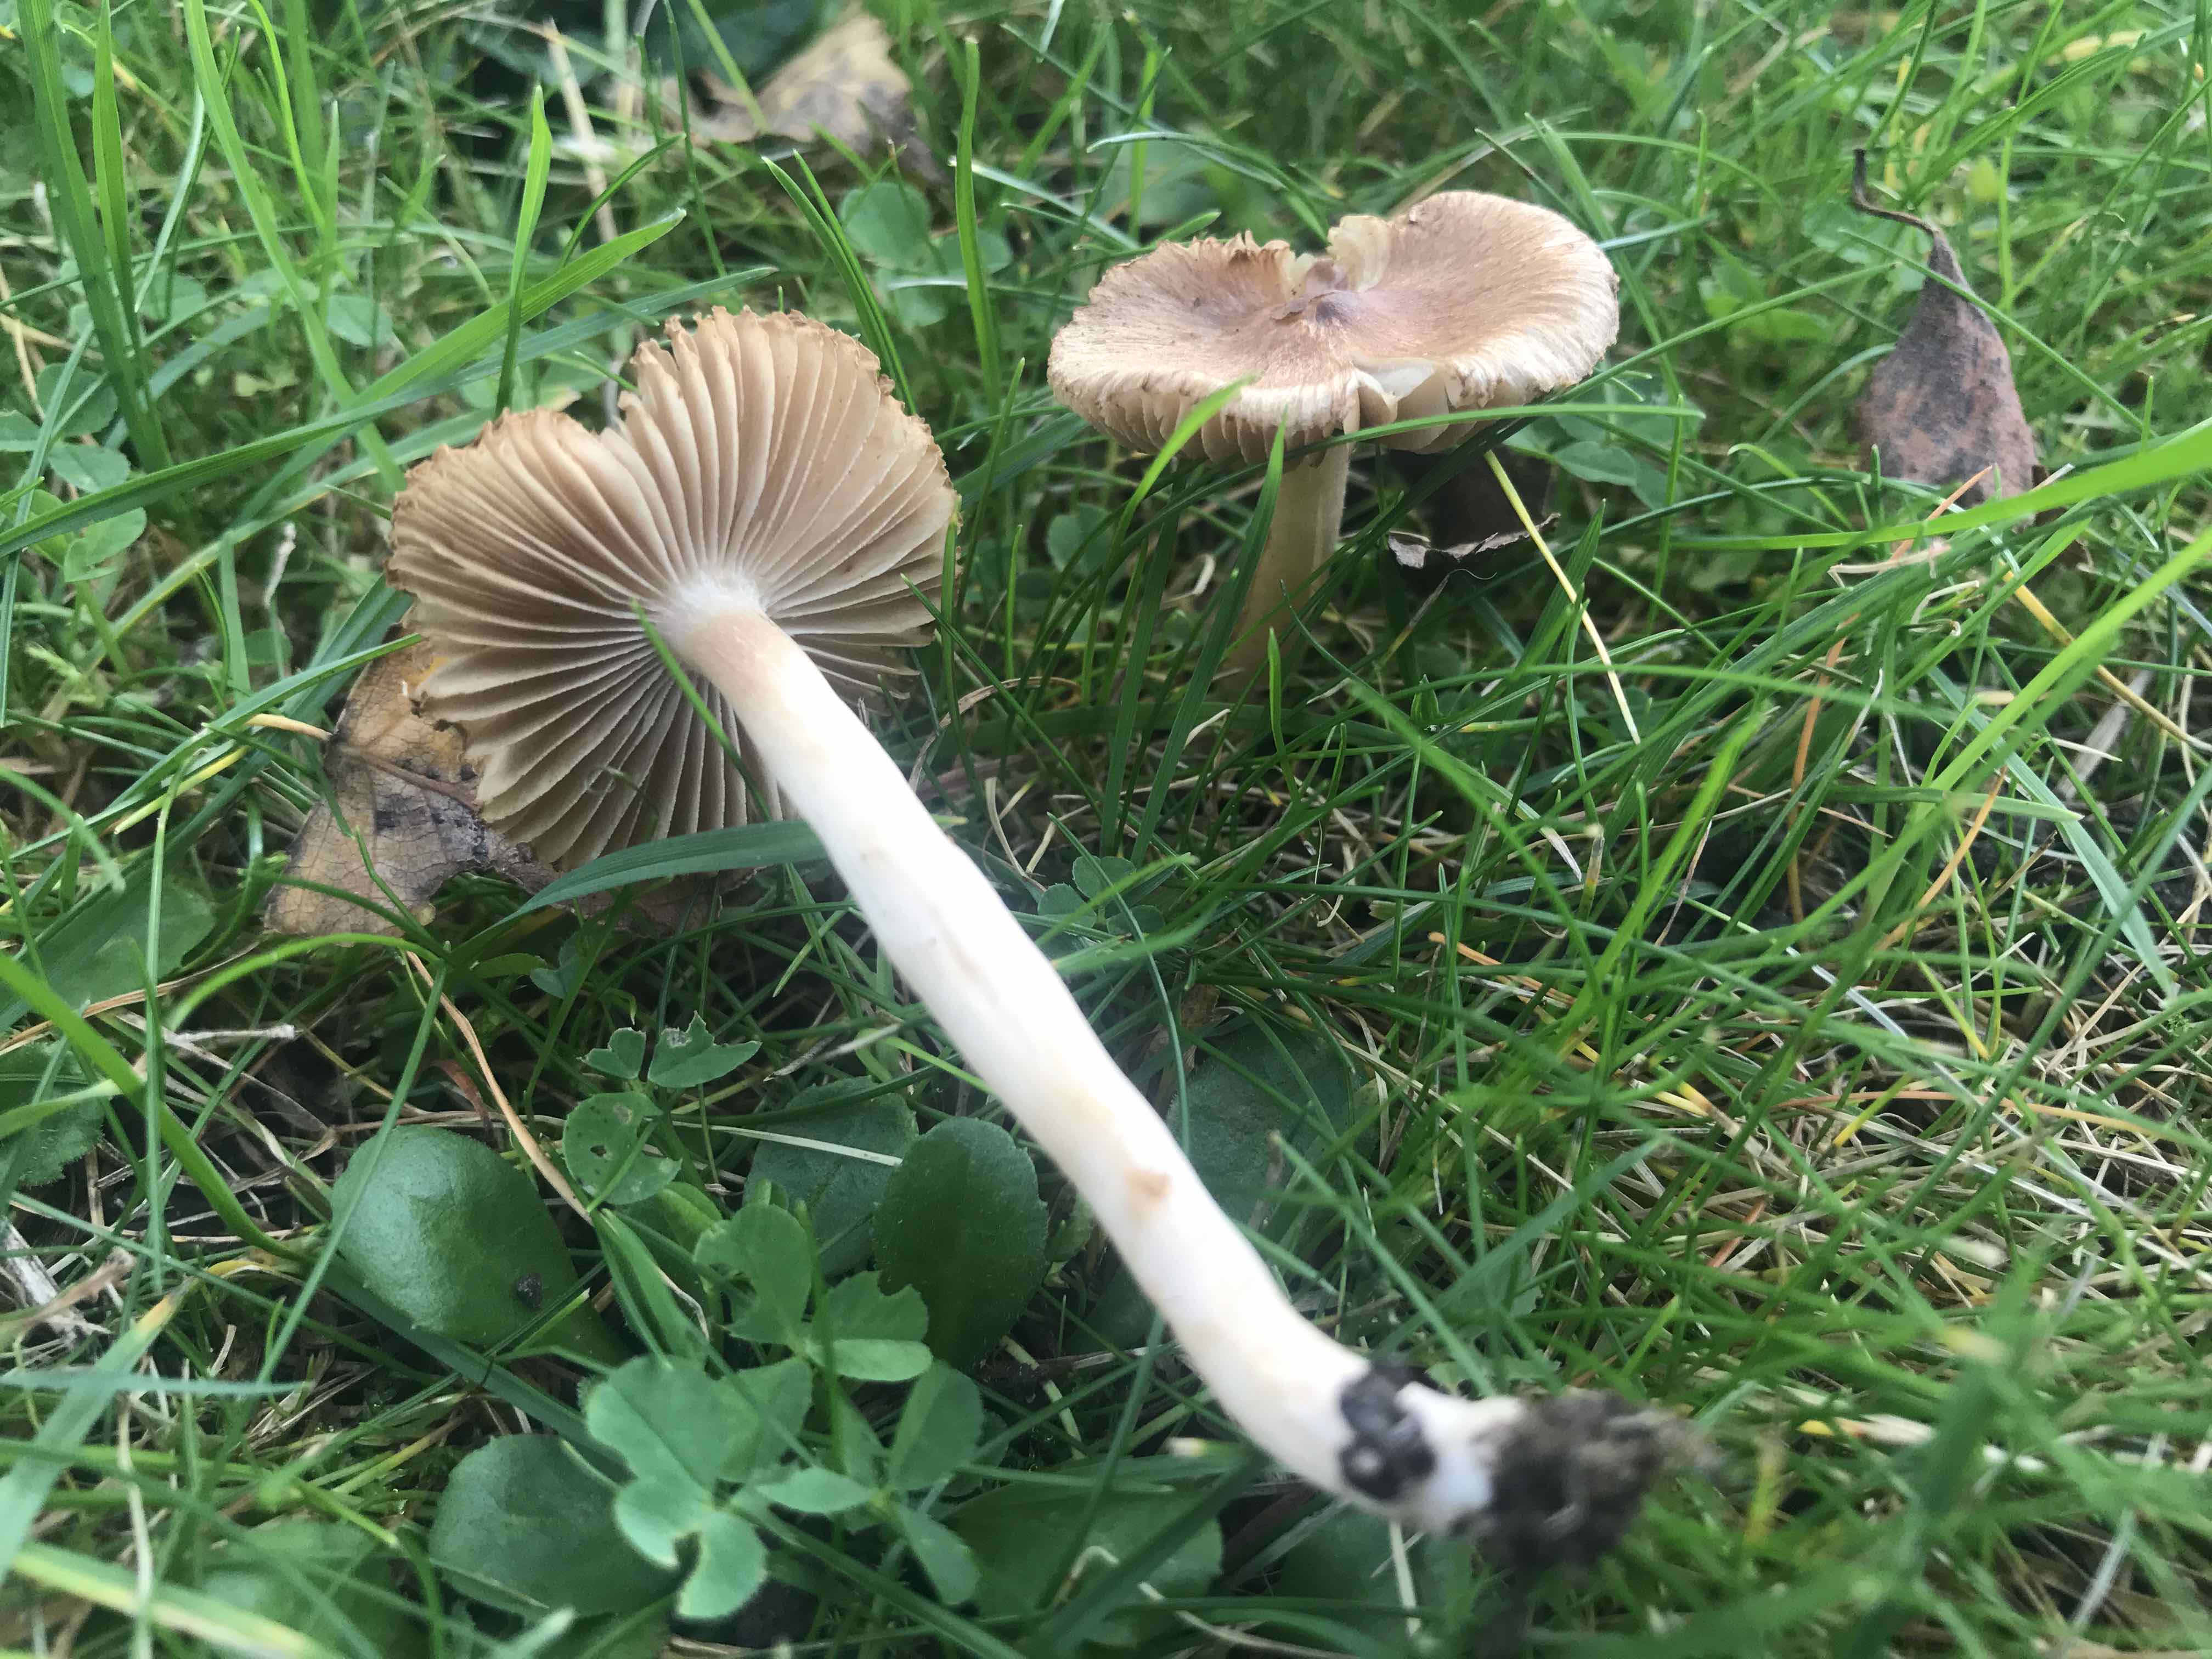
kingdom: Fungi
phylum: Basidiomycota
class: Agaricomycetes
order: Agaricales
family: Inocybaceae
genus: Inocybe
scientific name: Inocybe
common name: trævlhat
